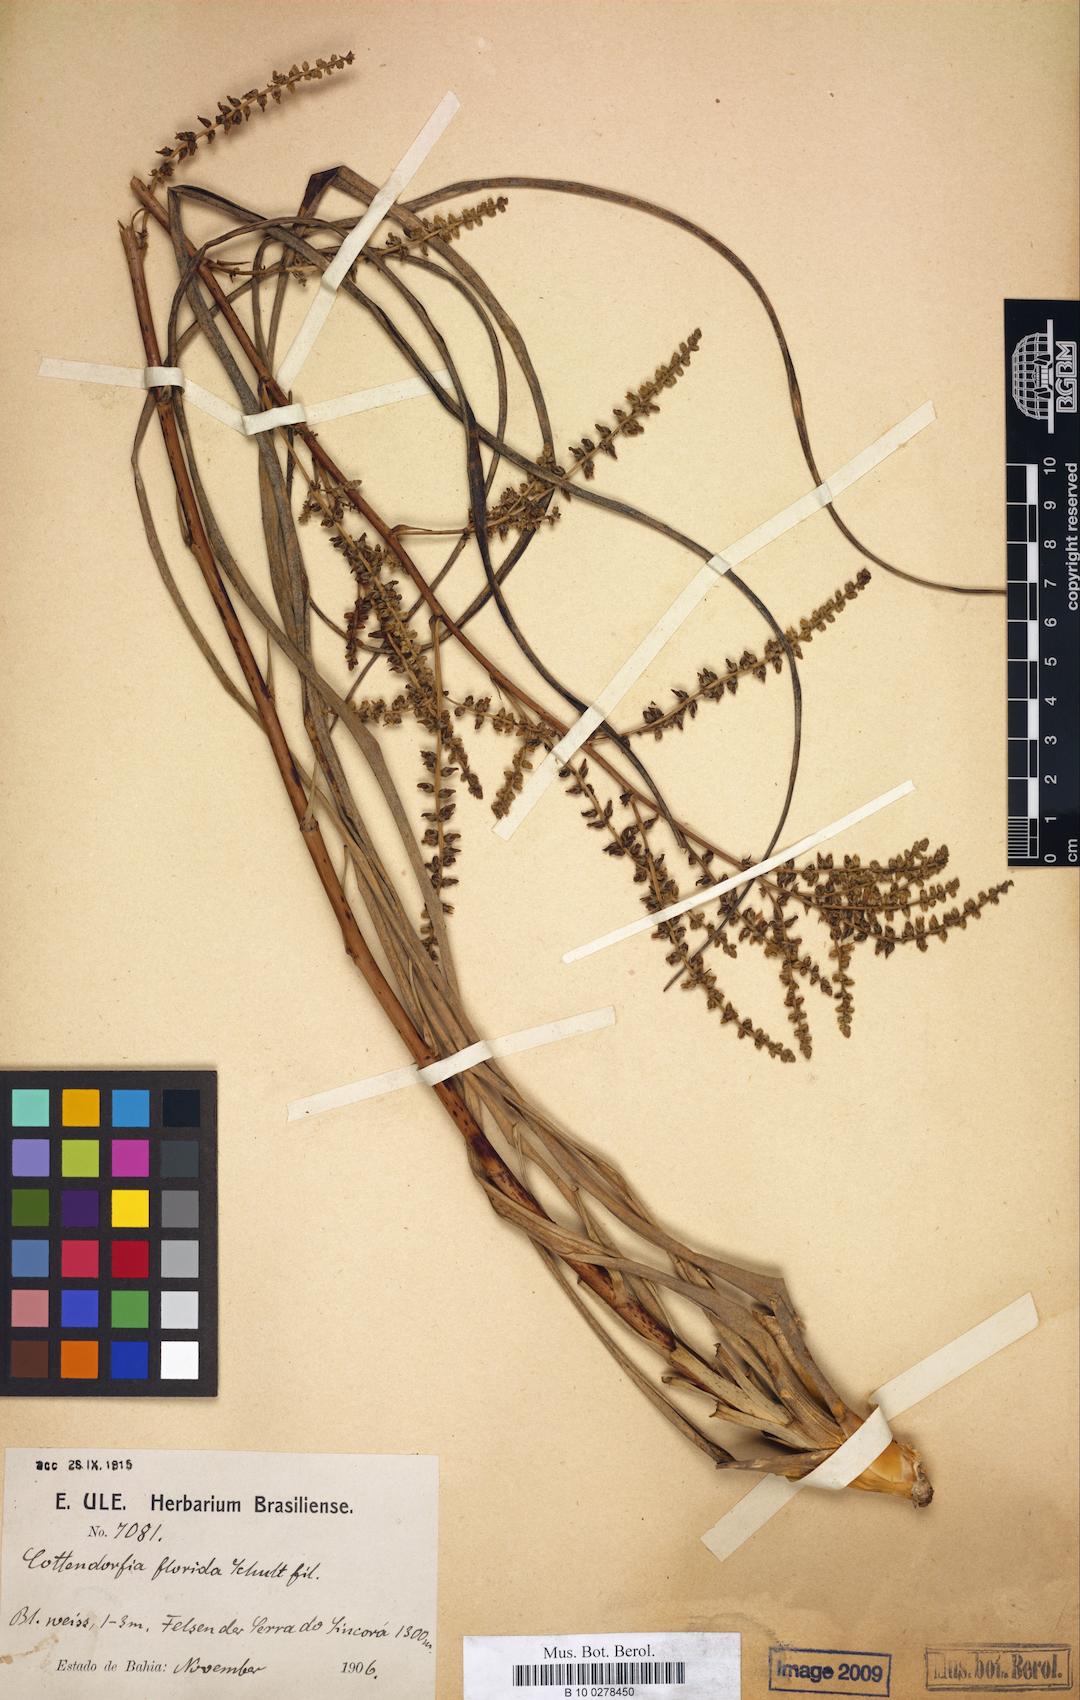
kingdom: Plantae
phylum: Tracheophyta
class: Liliopsida
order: Poales
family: Bromeliaceae
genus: Cottendorfia
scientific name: Cottendorfia florida
